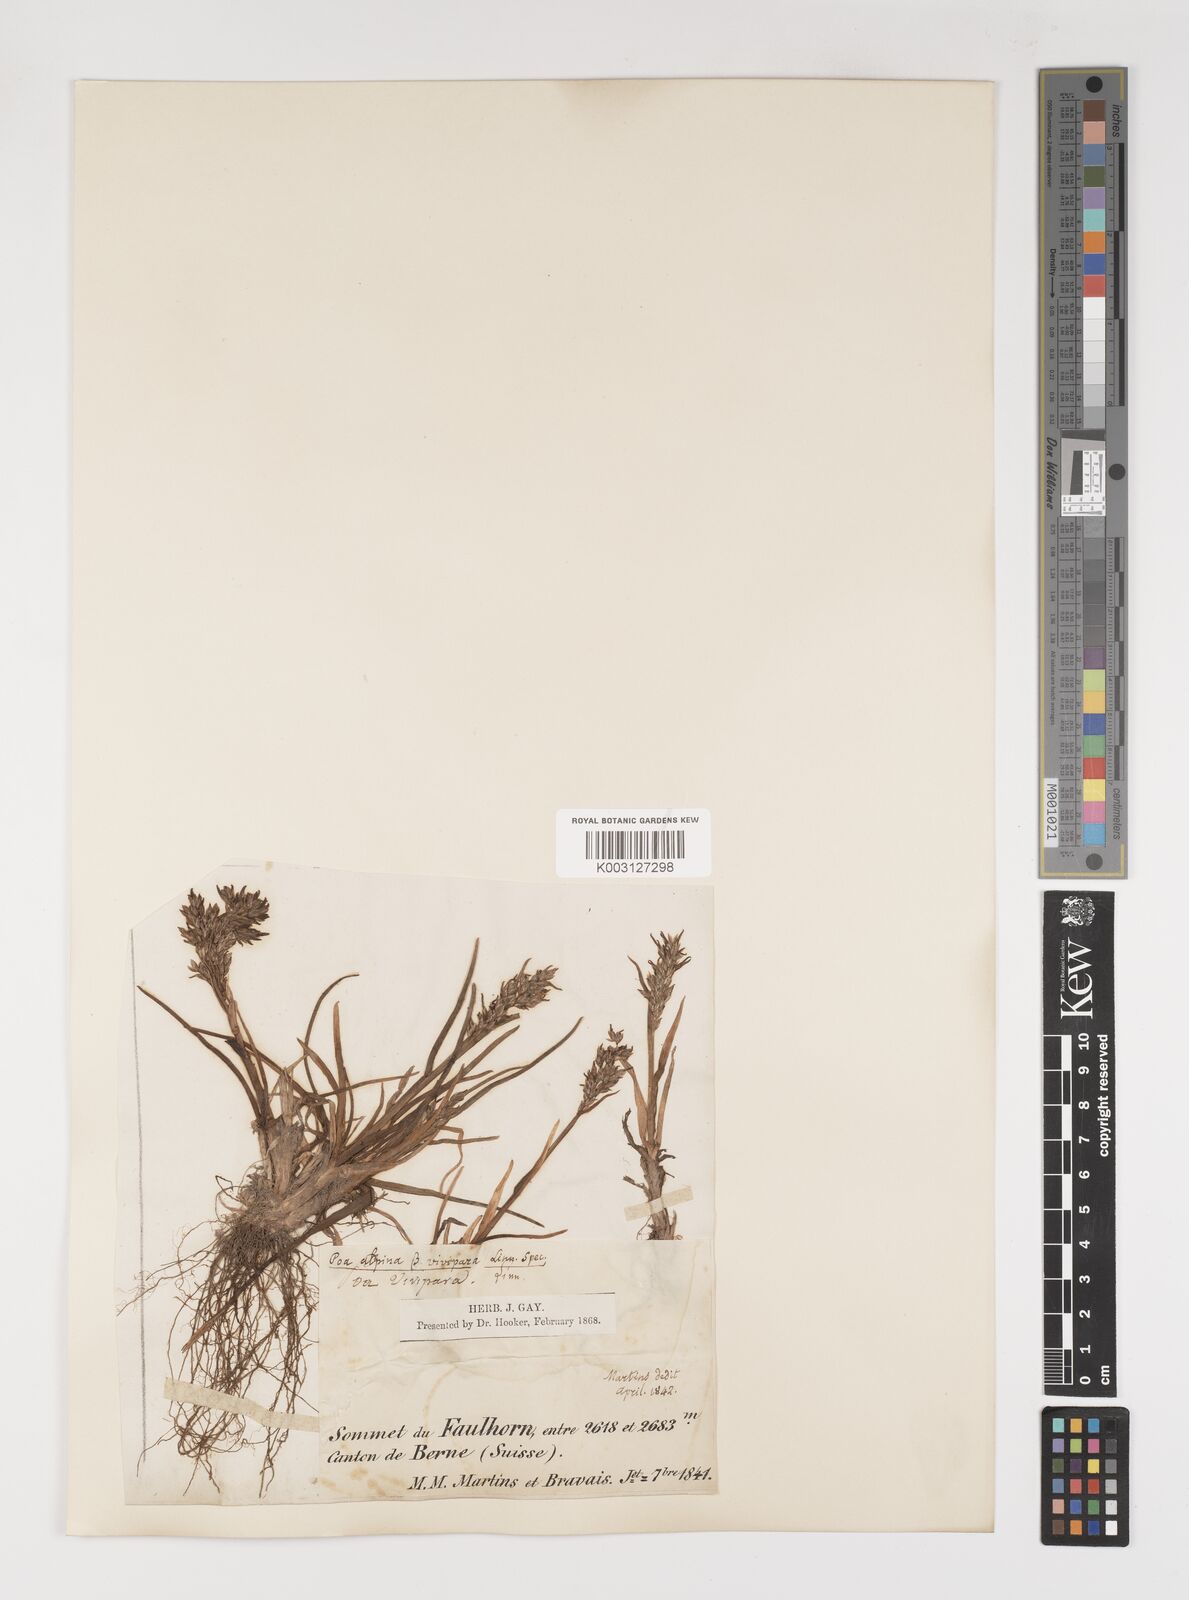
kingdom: Plantae
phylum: Tracheophyta
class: Liliopsida
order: Poales
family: Poaceae
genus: Poa
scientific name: Poa alpina
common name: Alpine bluegrass
